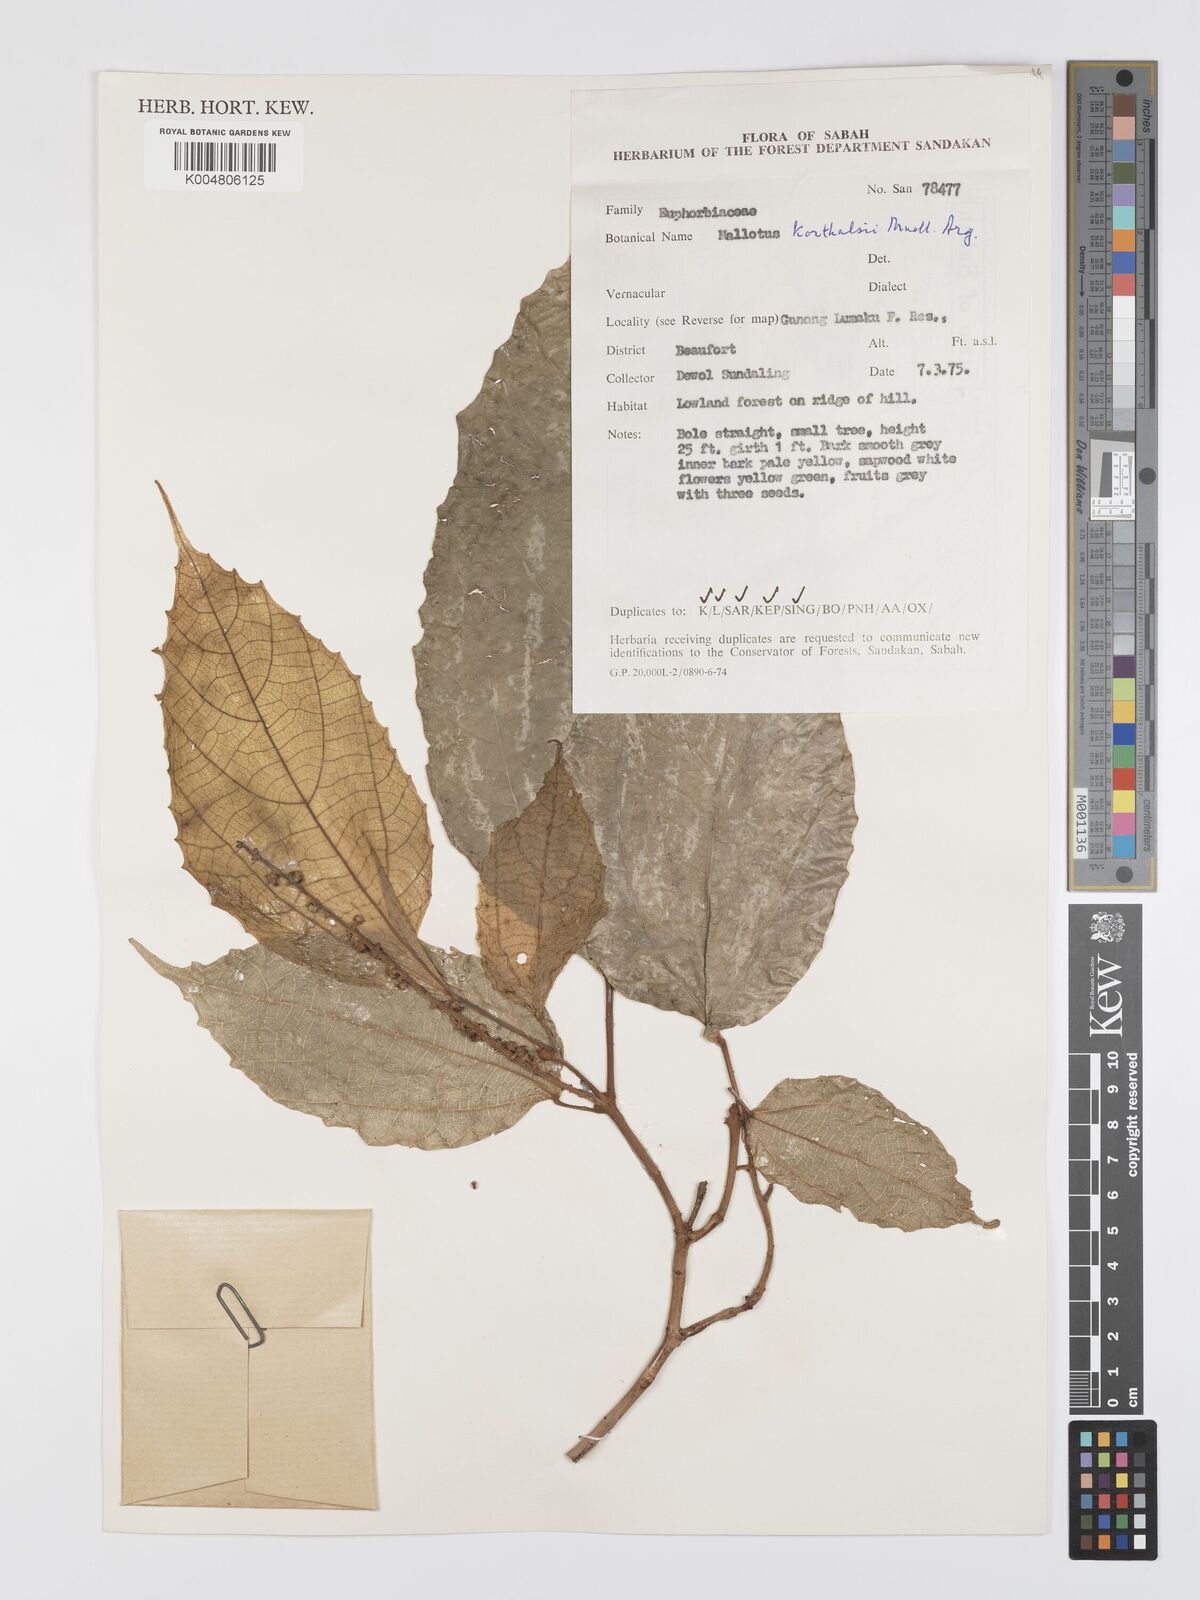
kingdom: Plantae
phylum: Tracheophyta
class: Magnoliopsida
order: Malpighiales
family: Euphorbiaceae
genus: Mallotus
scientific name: Mallotus korthalsii
